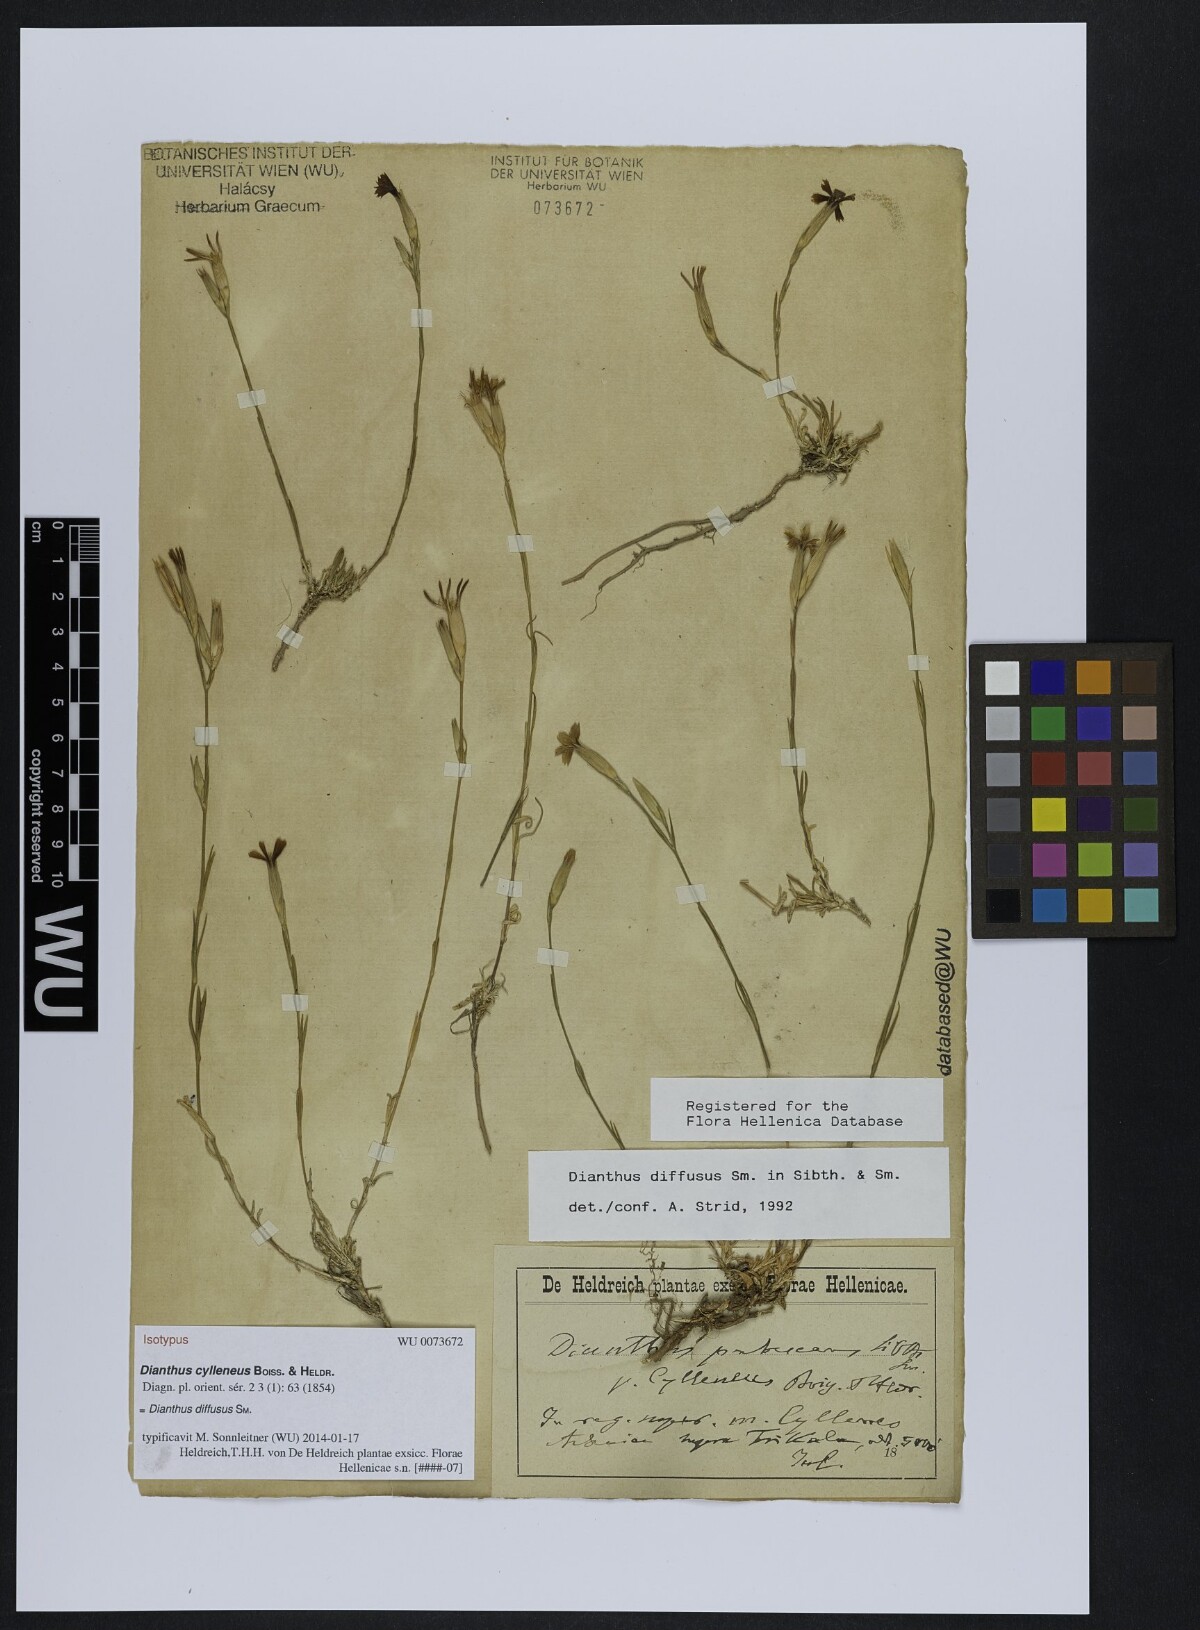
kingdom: Plantae
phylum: Tracheophyta
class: Magnoliopsida
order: Caryophyllales
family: Caryophyllaceae
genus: Dianthus
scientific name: Dianthus diffusus
